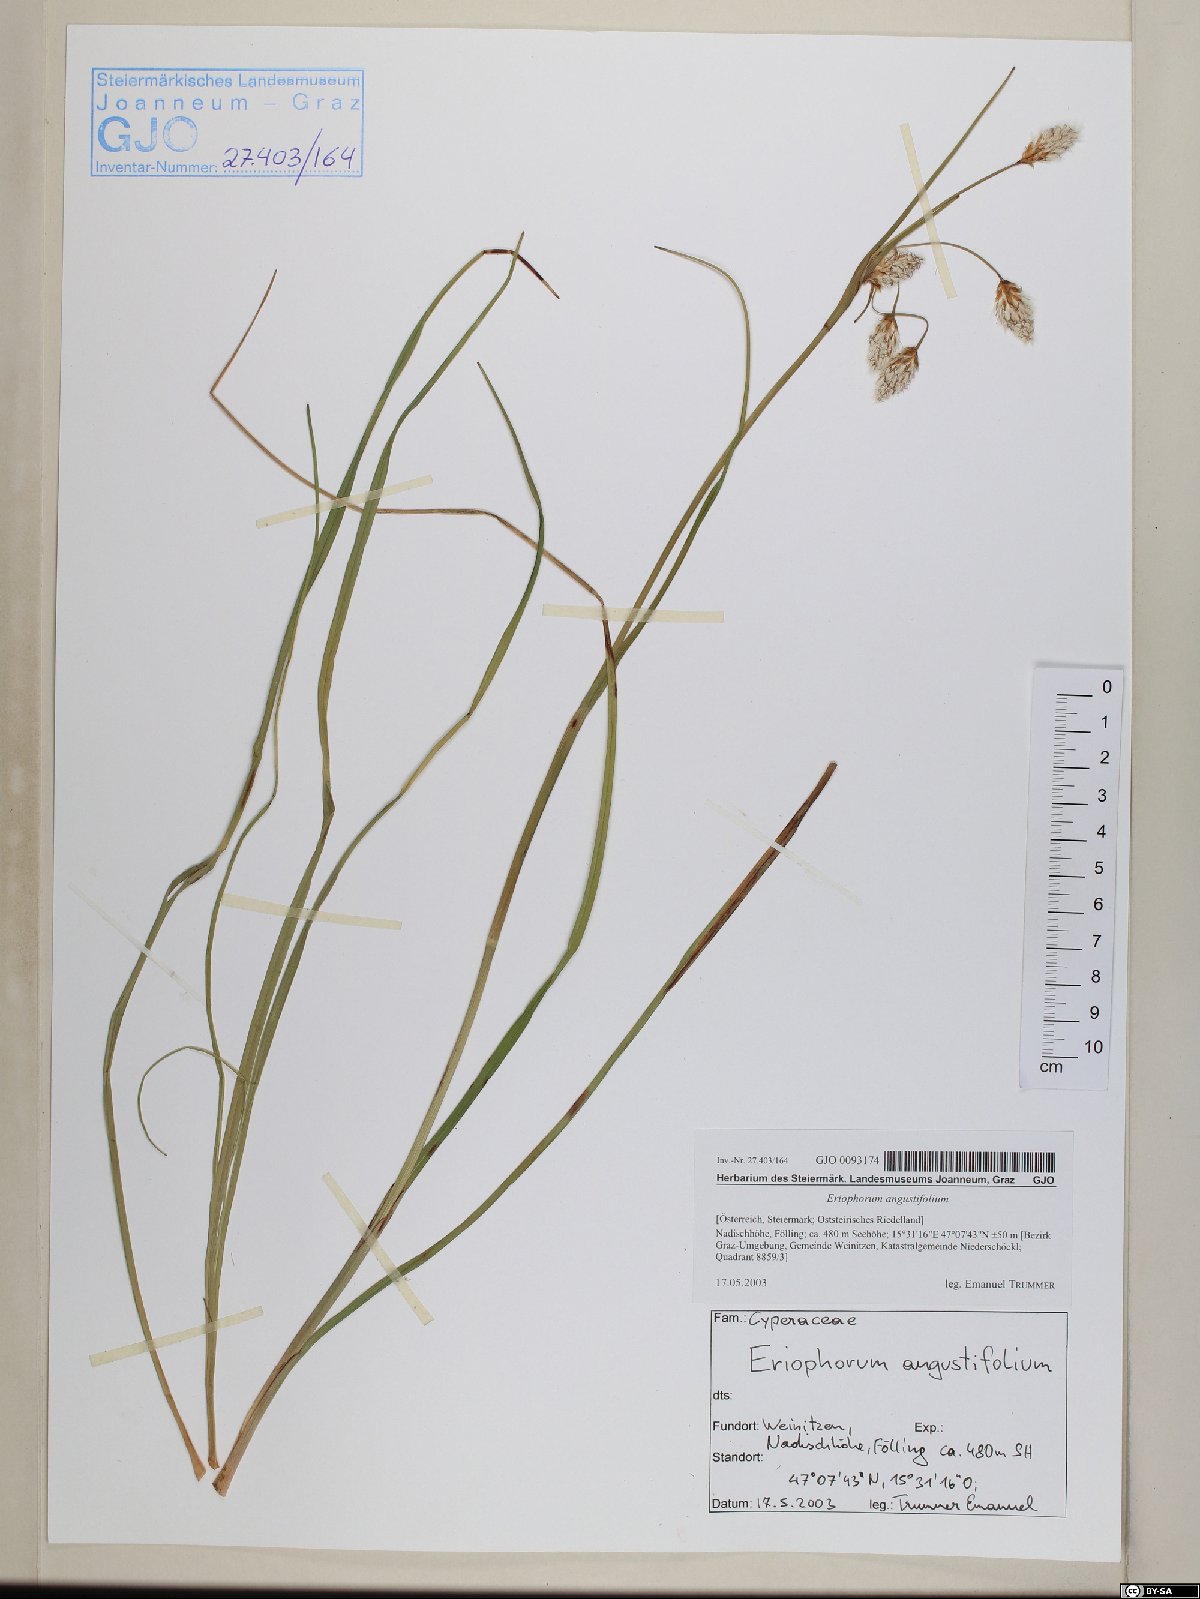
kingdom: Plantae
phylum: Tracheophyta
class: Liliopsida
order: Poales
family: Cyperaceae
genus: Eriophorum
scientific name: Eriophorum angustifolium
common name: Common cottongrass
